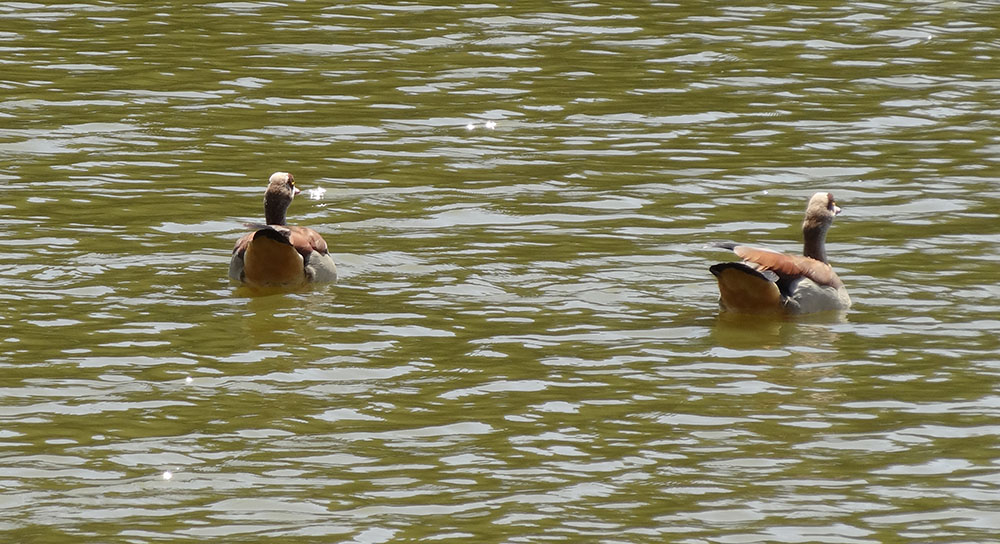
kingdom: Animalia
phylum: Chordata
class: Aves
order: Anseriformes
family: Anatidae
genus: Alopochen
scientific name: Alopochen aegyptiaca
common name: Egyptian goose
